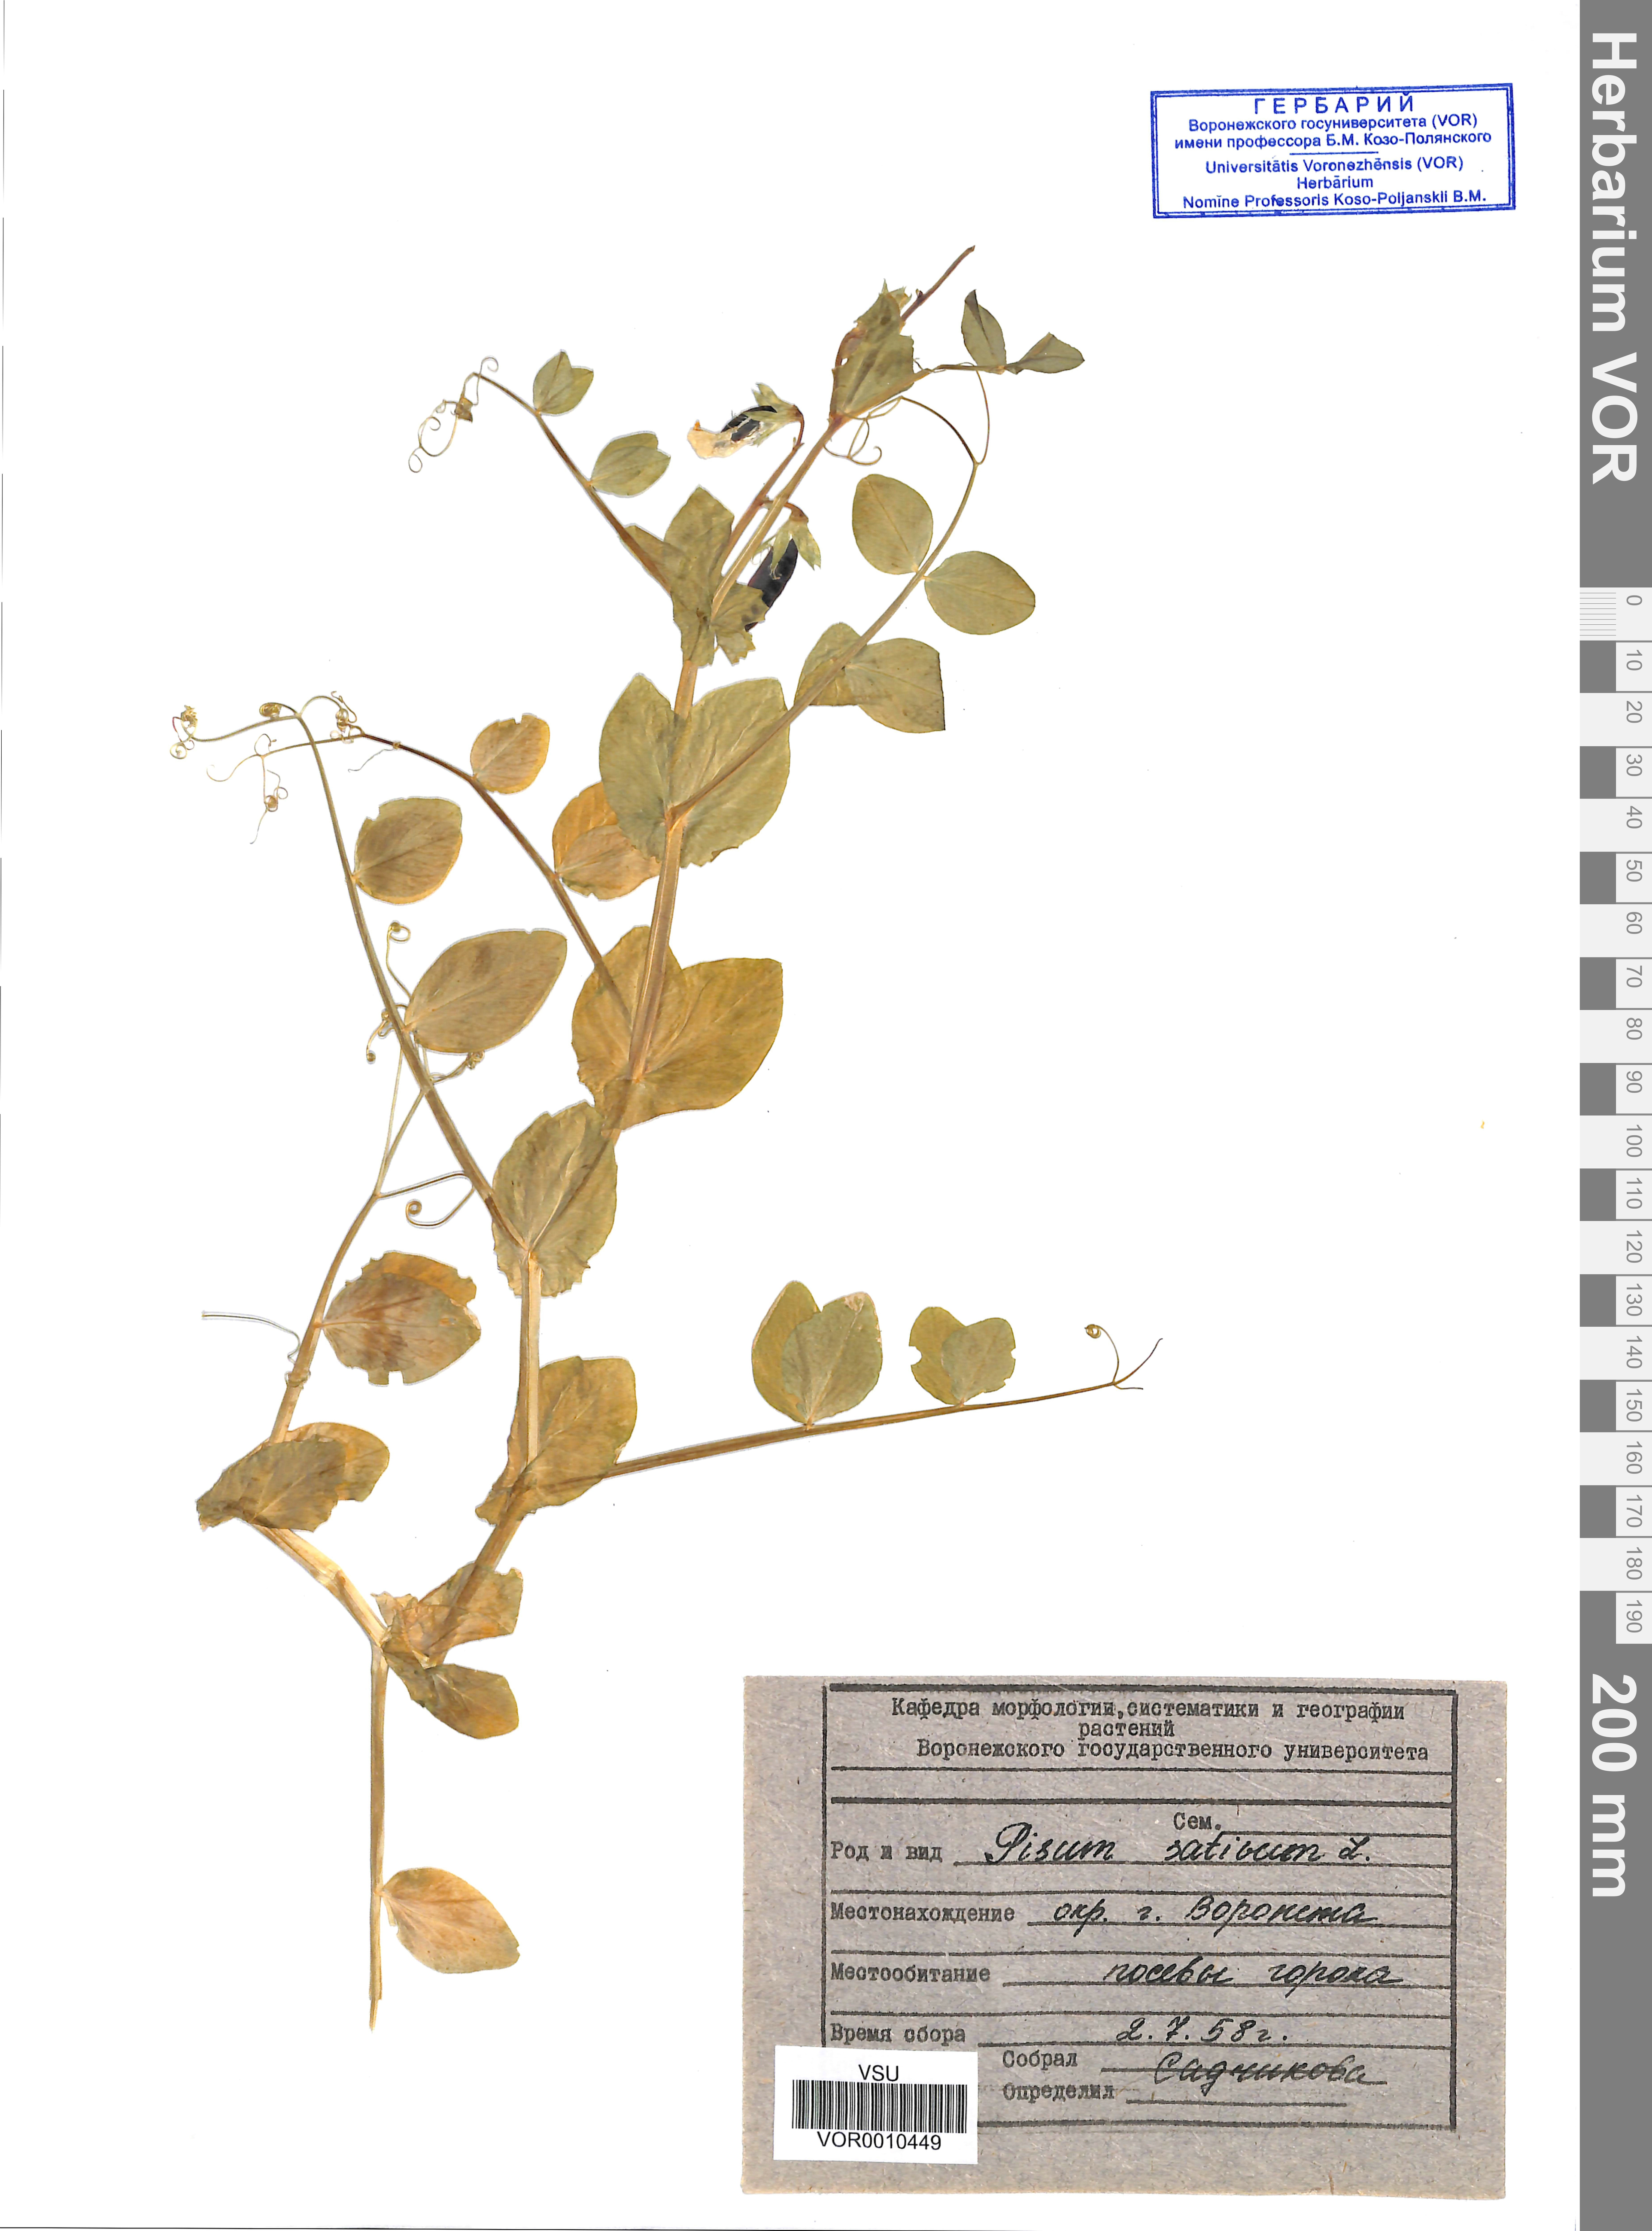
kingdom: Plantae
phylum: Tracheophyta
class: Magnoliopsida
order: Fabales
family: Fabaceae
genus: Lathyrus
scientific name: Lathyrus oleraceus
